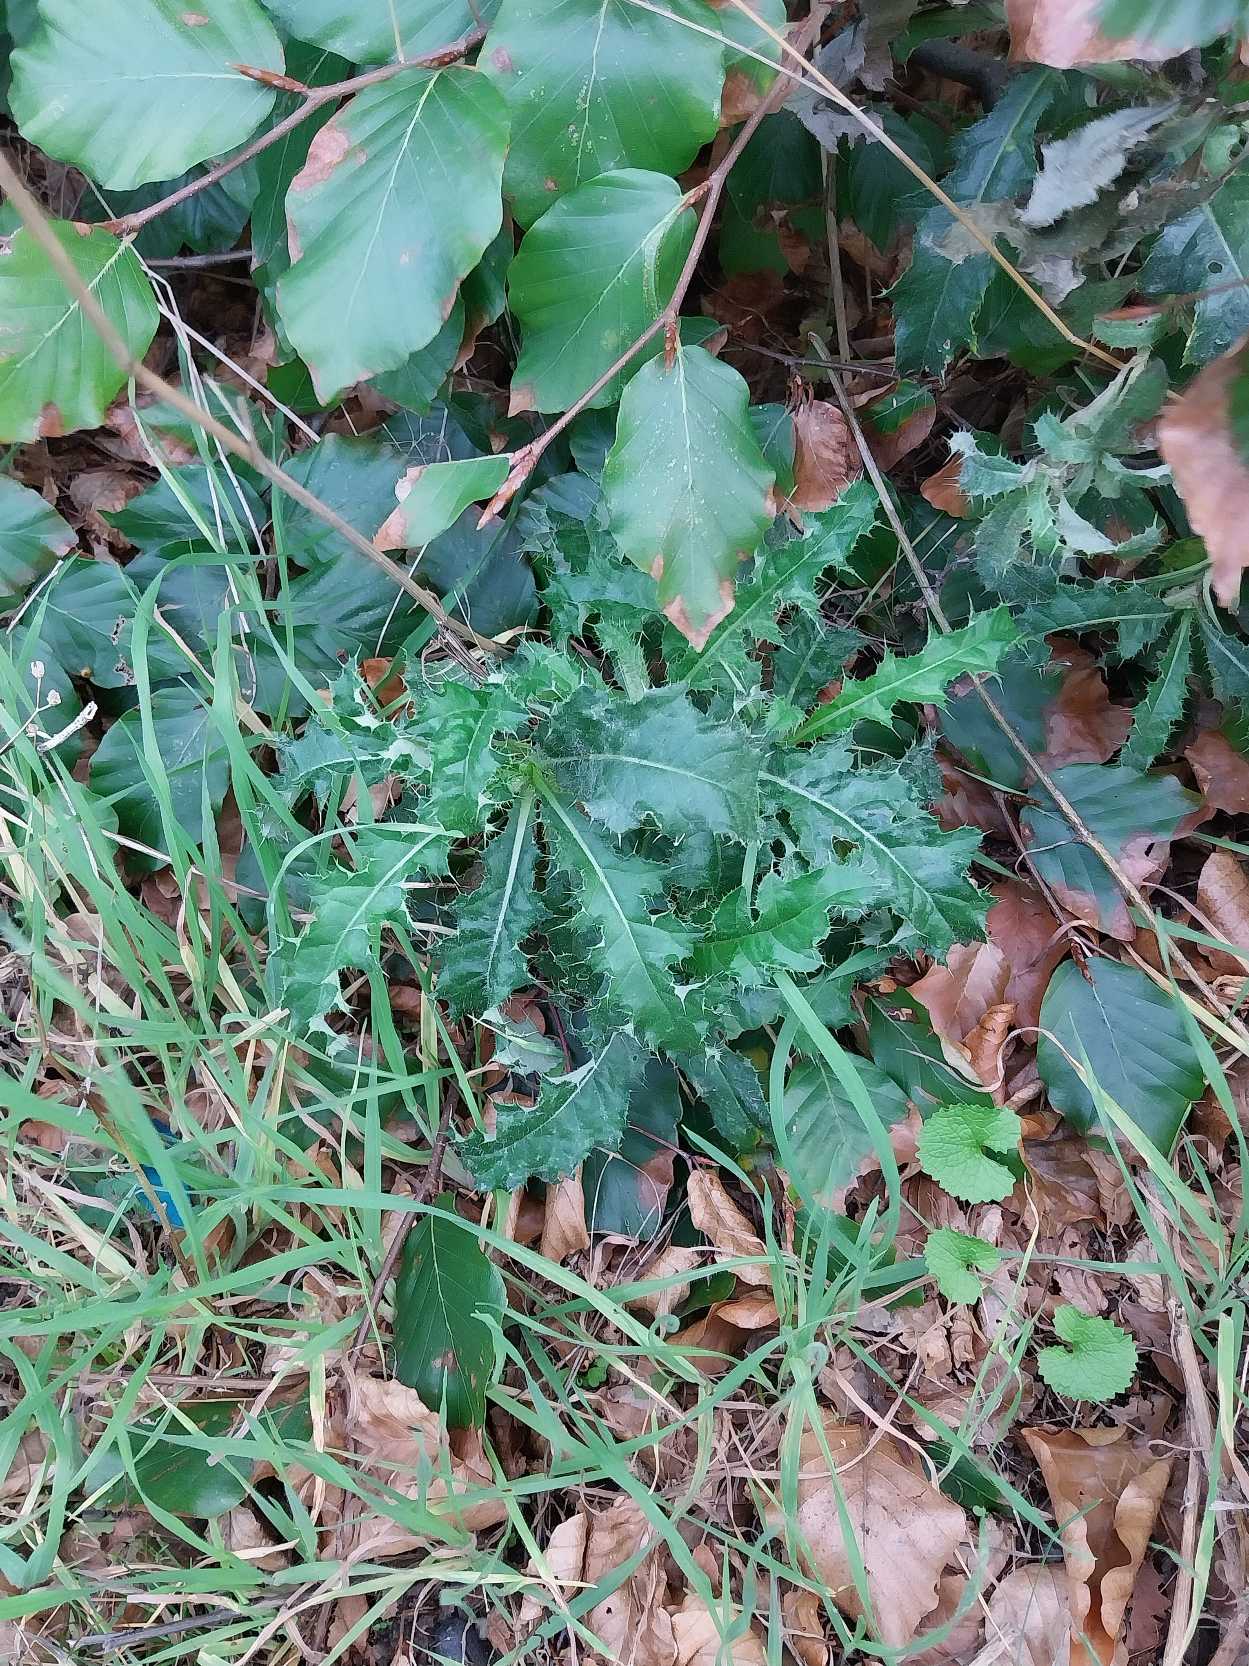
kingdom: Plantae
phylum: Tracheophyta
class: Magnoliopsida
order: Asterales
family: Asteraceae
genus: Cirsium
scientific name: Cirsium arvense
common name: Ager-tidsel
